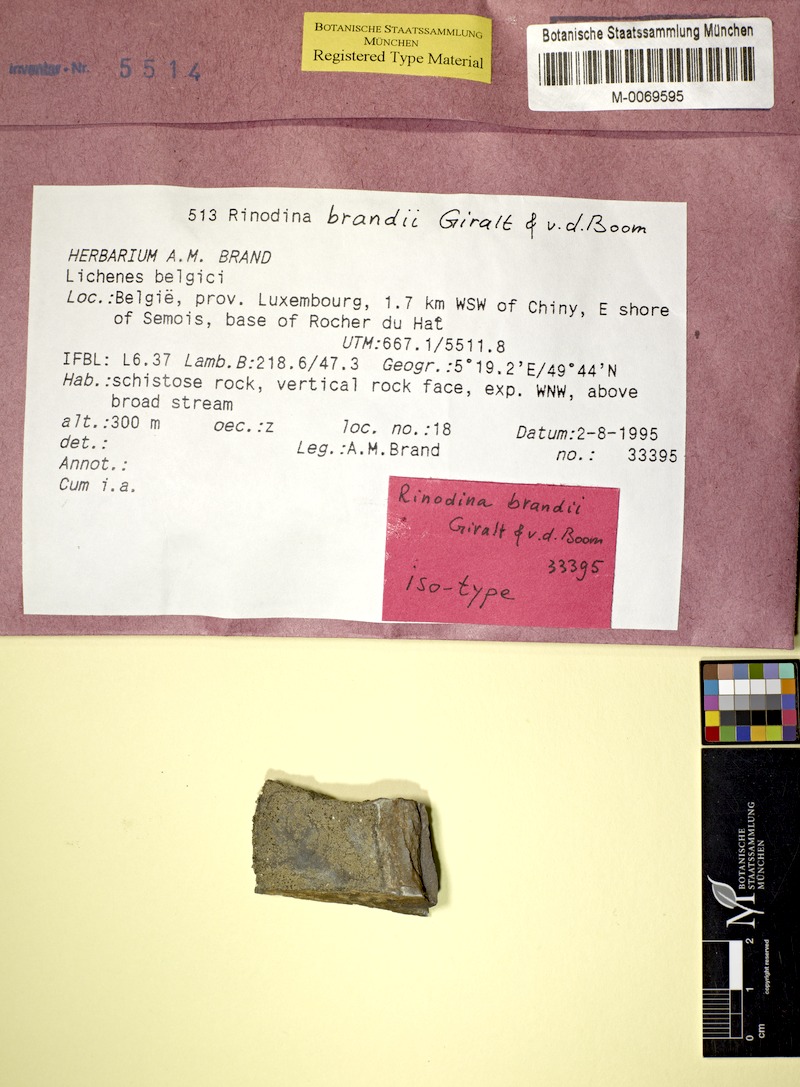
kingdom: Fungi
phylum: Ascomycota
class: Lecanoromycetes
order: Caliciales
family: Physciaceae
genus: Rinodina
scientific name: Rinodina
